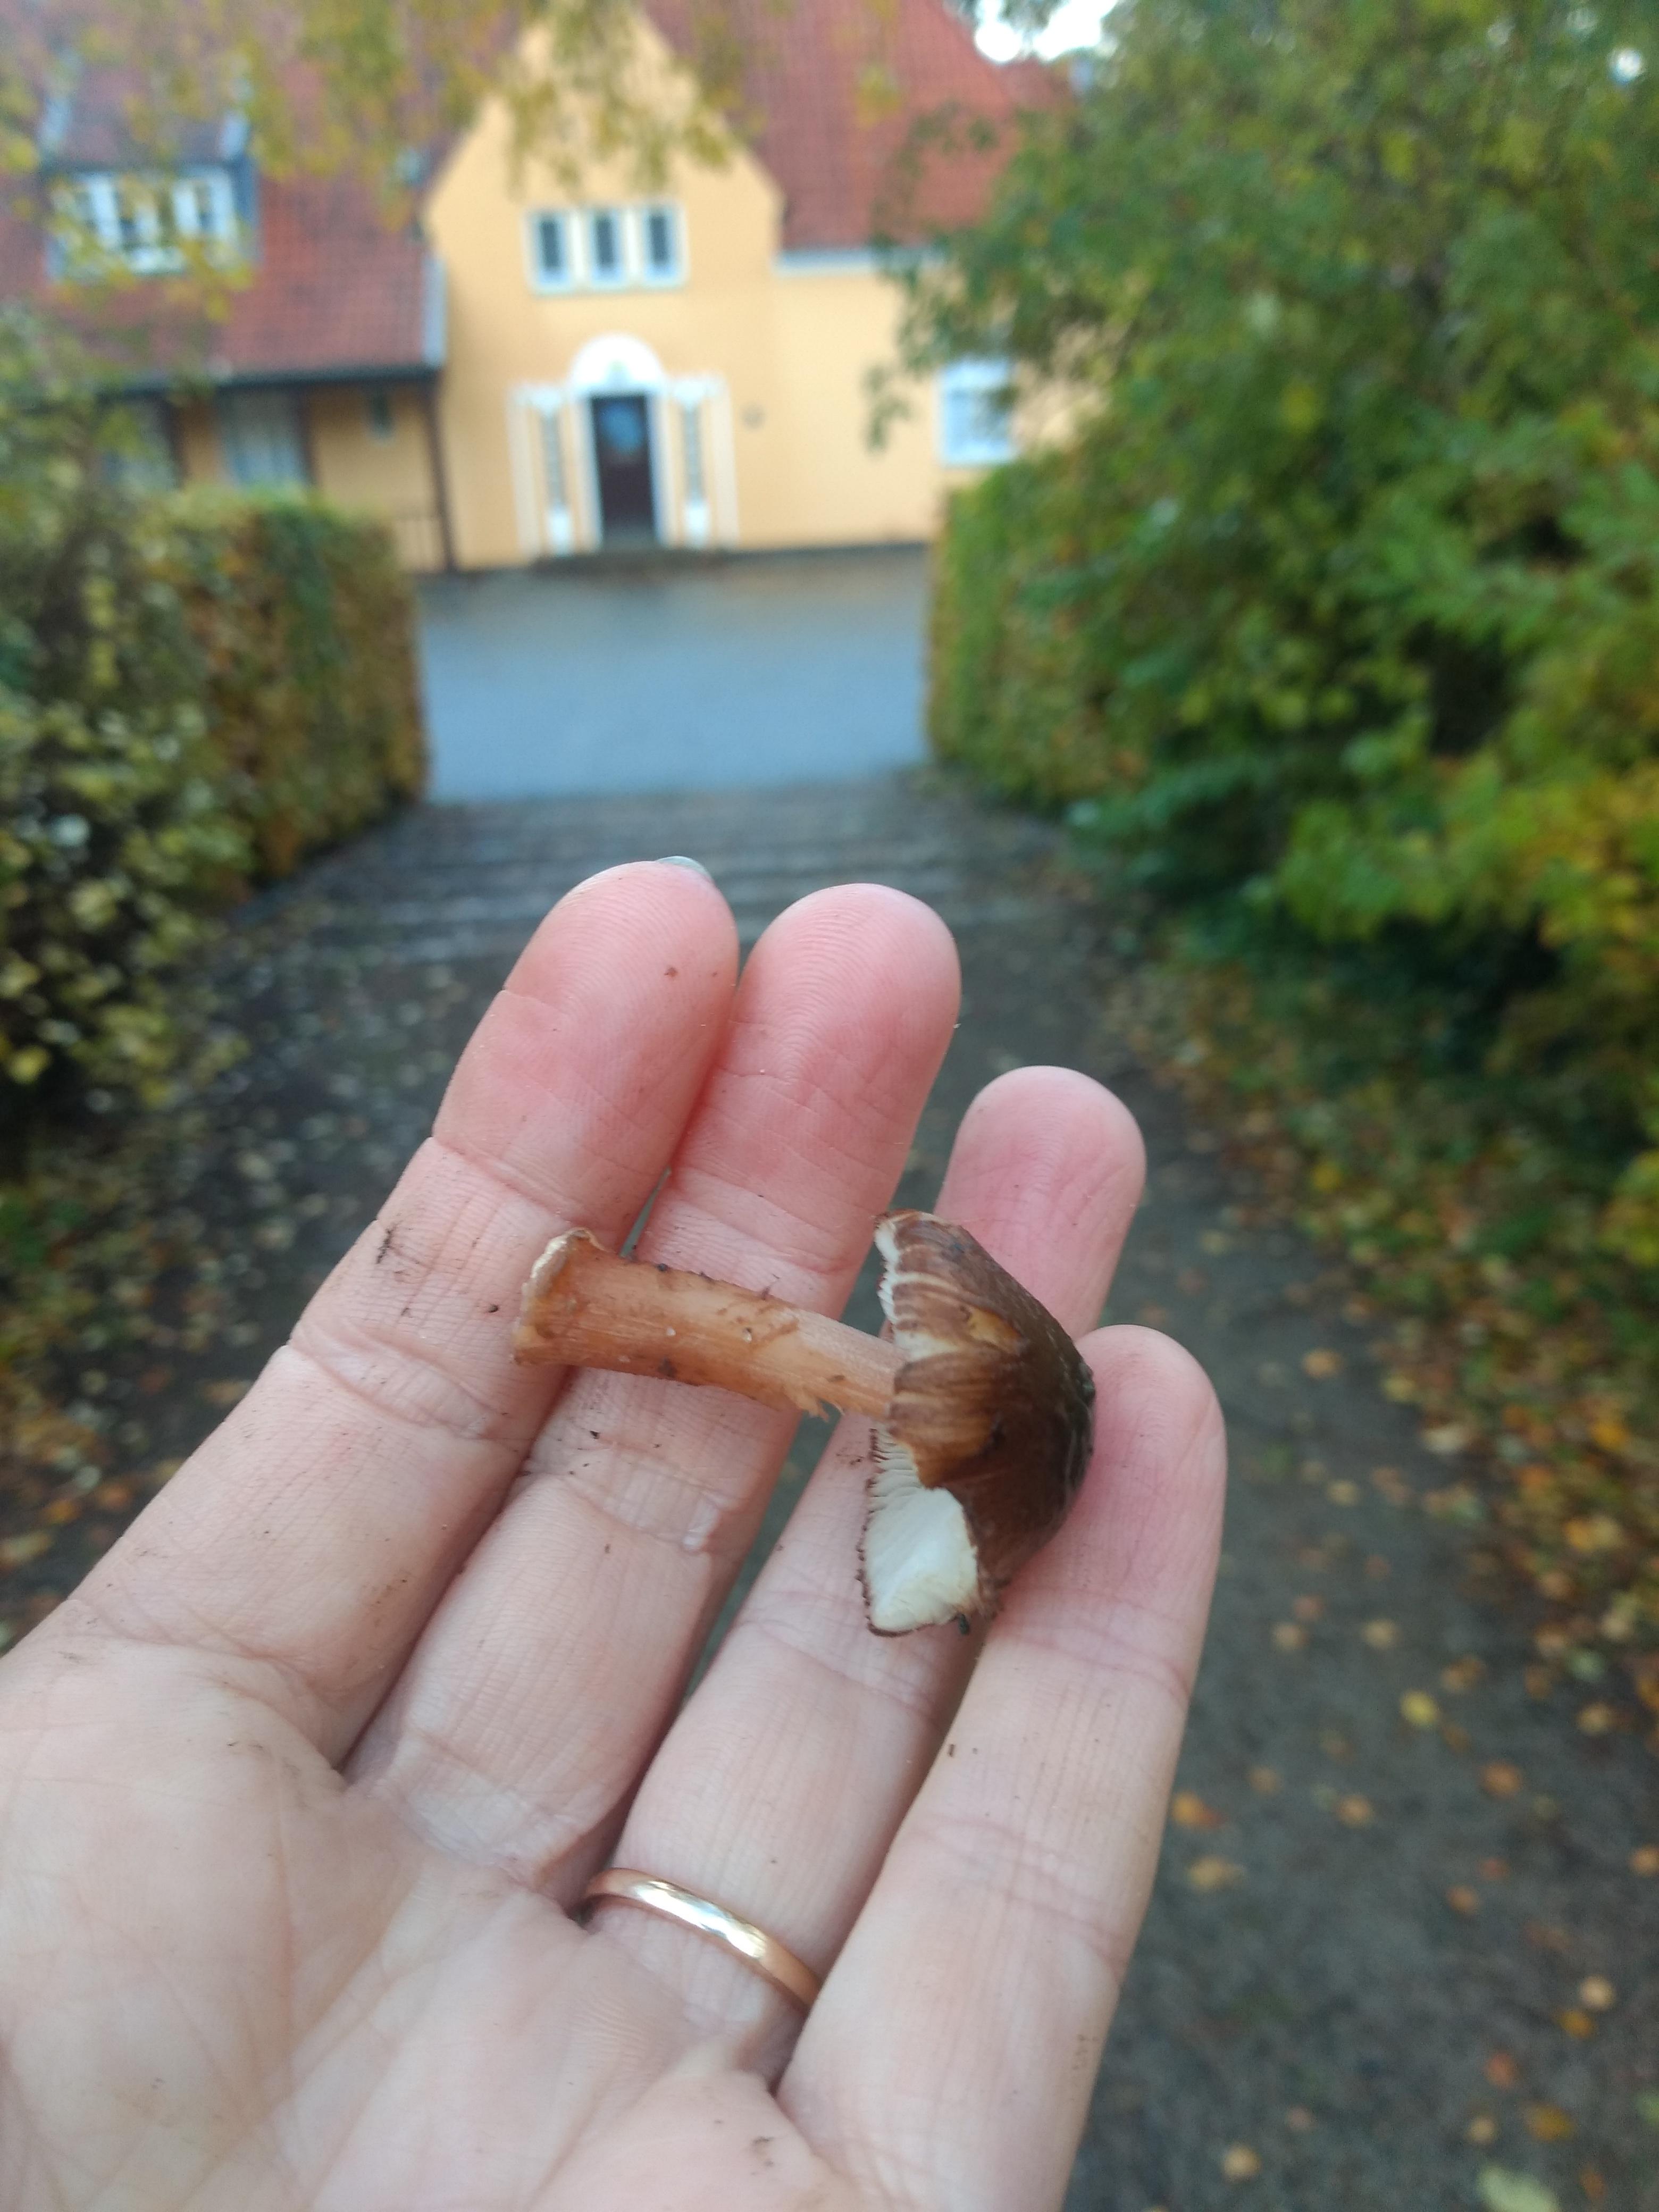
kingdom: Fungi
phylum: Basidiomycota
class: Agaricomycetes
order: Agaricales
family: Inocybaceae
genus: Inosperma
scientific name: Inosperma
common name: Trævlhat
